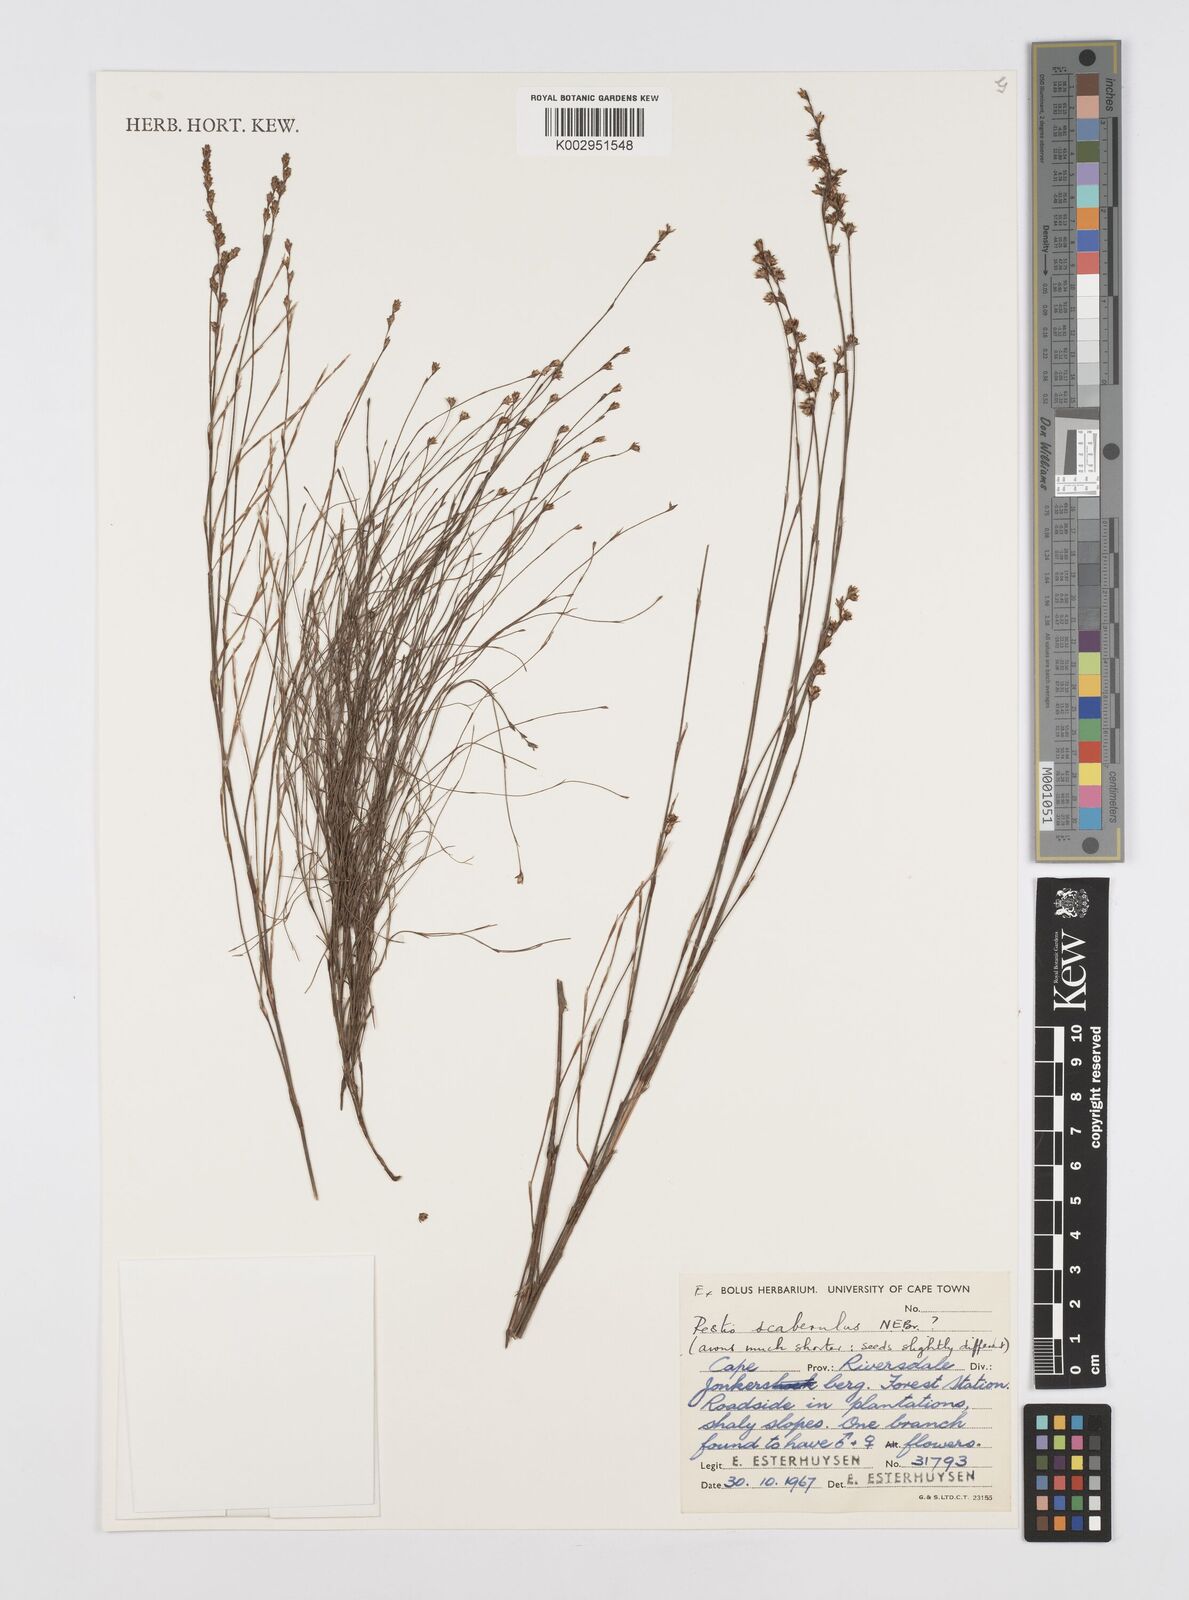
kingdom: Plantae
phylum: Tracheophyta
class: Liliopsida
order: Poales
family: Restionaceae
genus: Restio
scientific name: Restio scaberulus
